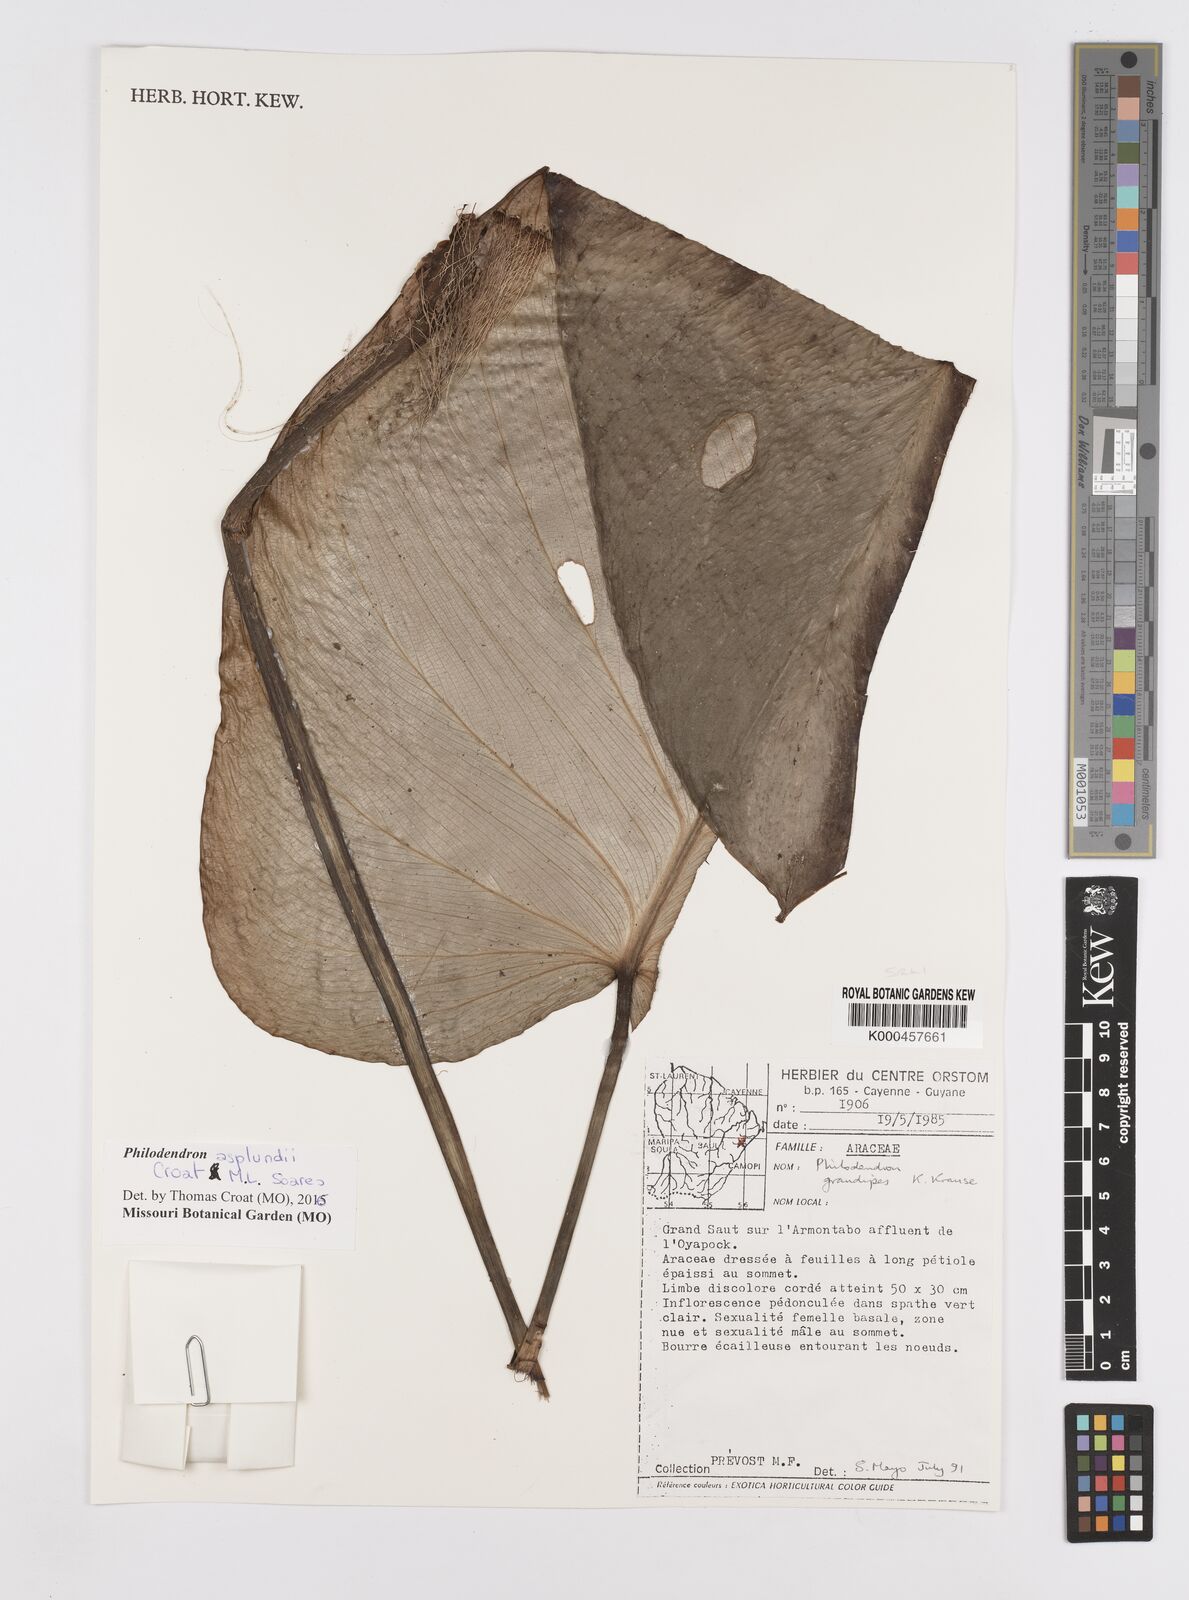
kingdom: Plantae
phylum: Tracheophyta
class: Liliopsida
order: Alismatales
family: Araceae
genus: Philodendron
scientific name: Philodendron grandipes
